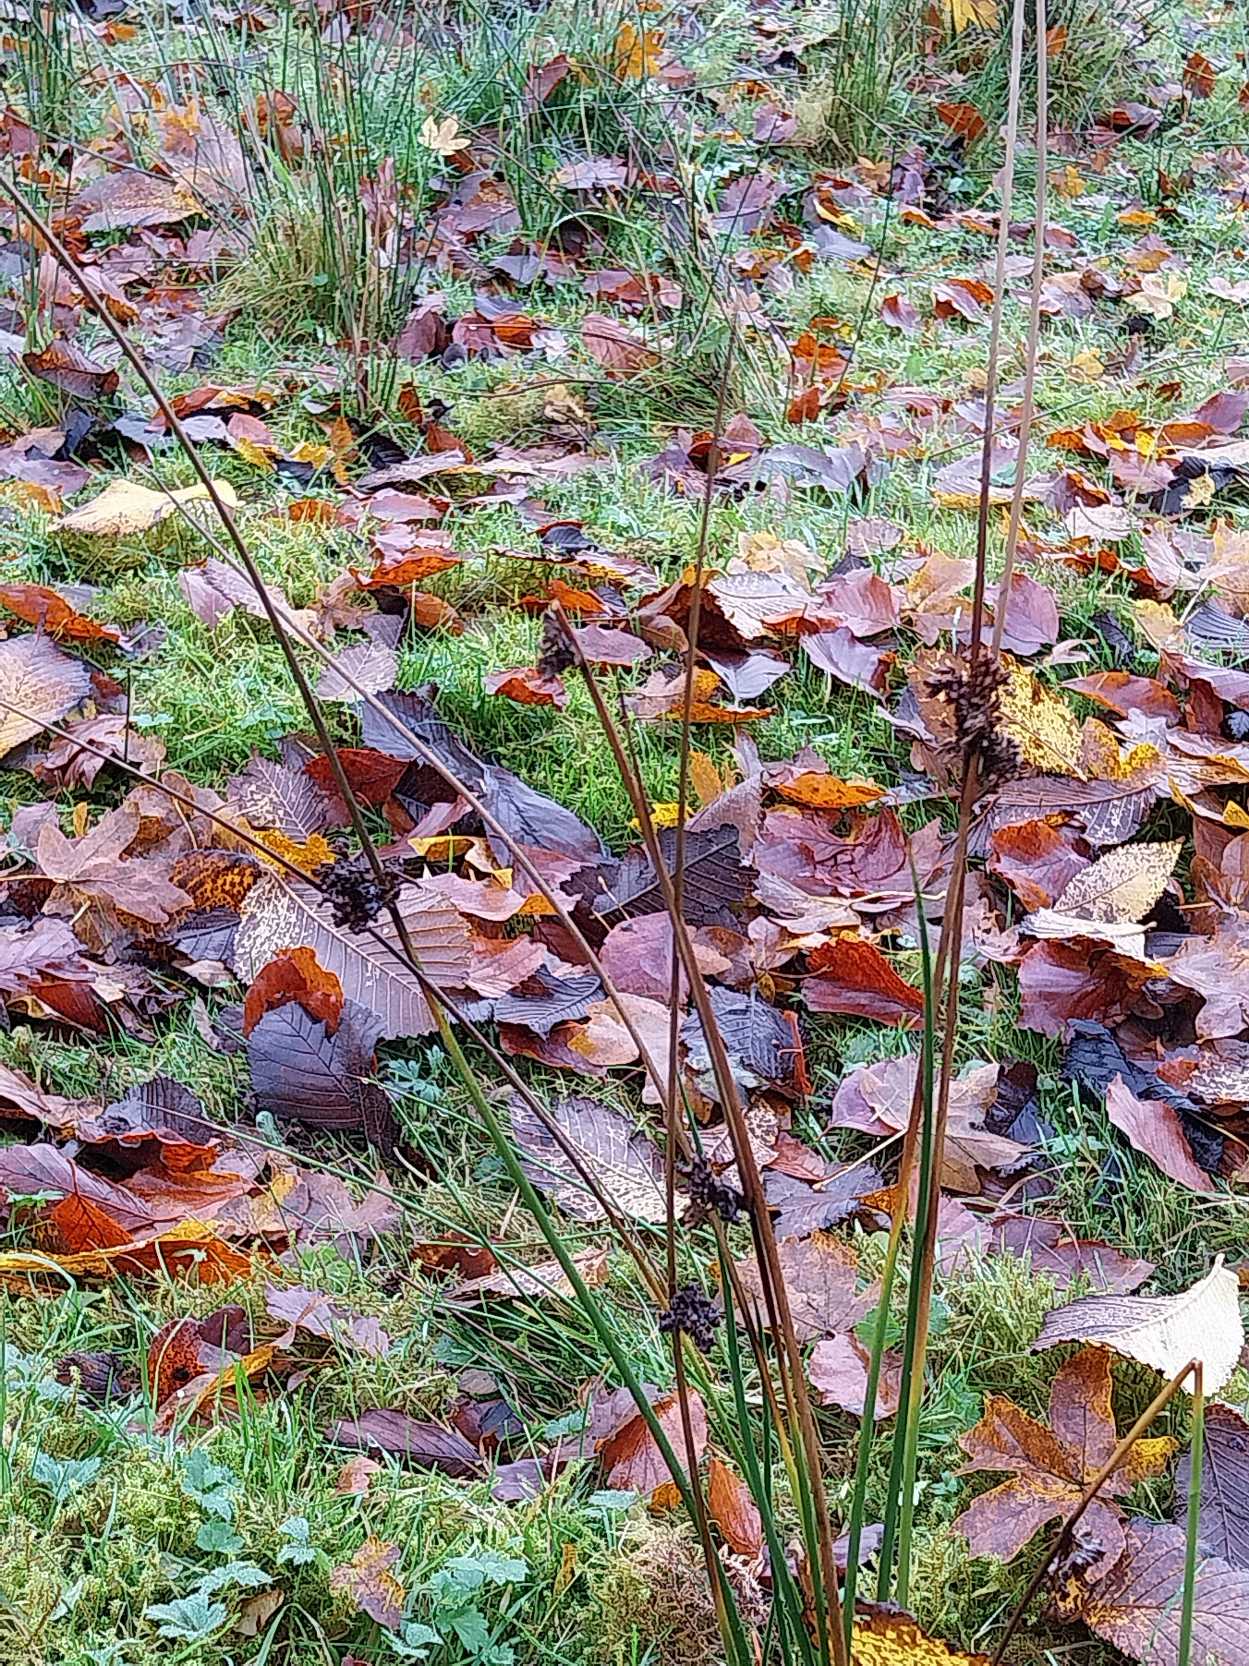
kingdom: Plantae
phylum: Tracheophyta
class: Liliopsida
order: Poales
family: Juncaceae
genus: Juncus
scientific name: Juncus effusus
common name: Lyse-siv
